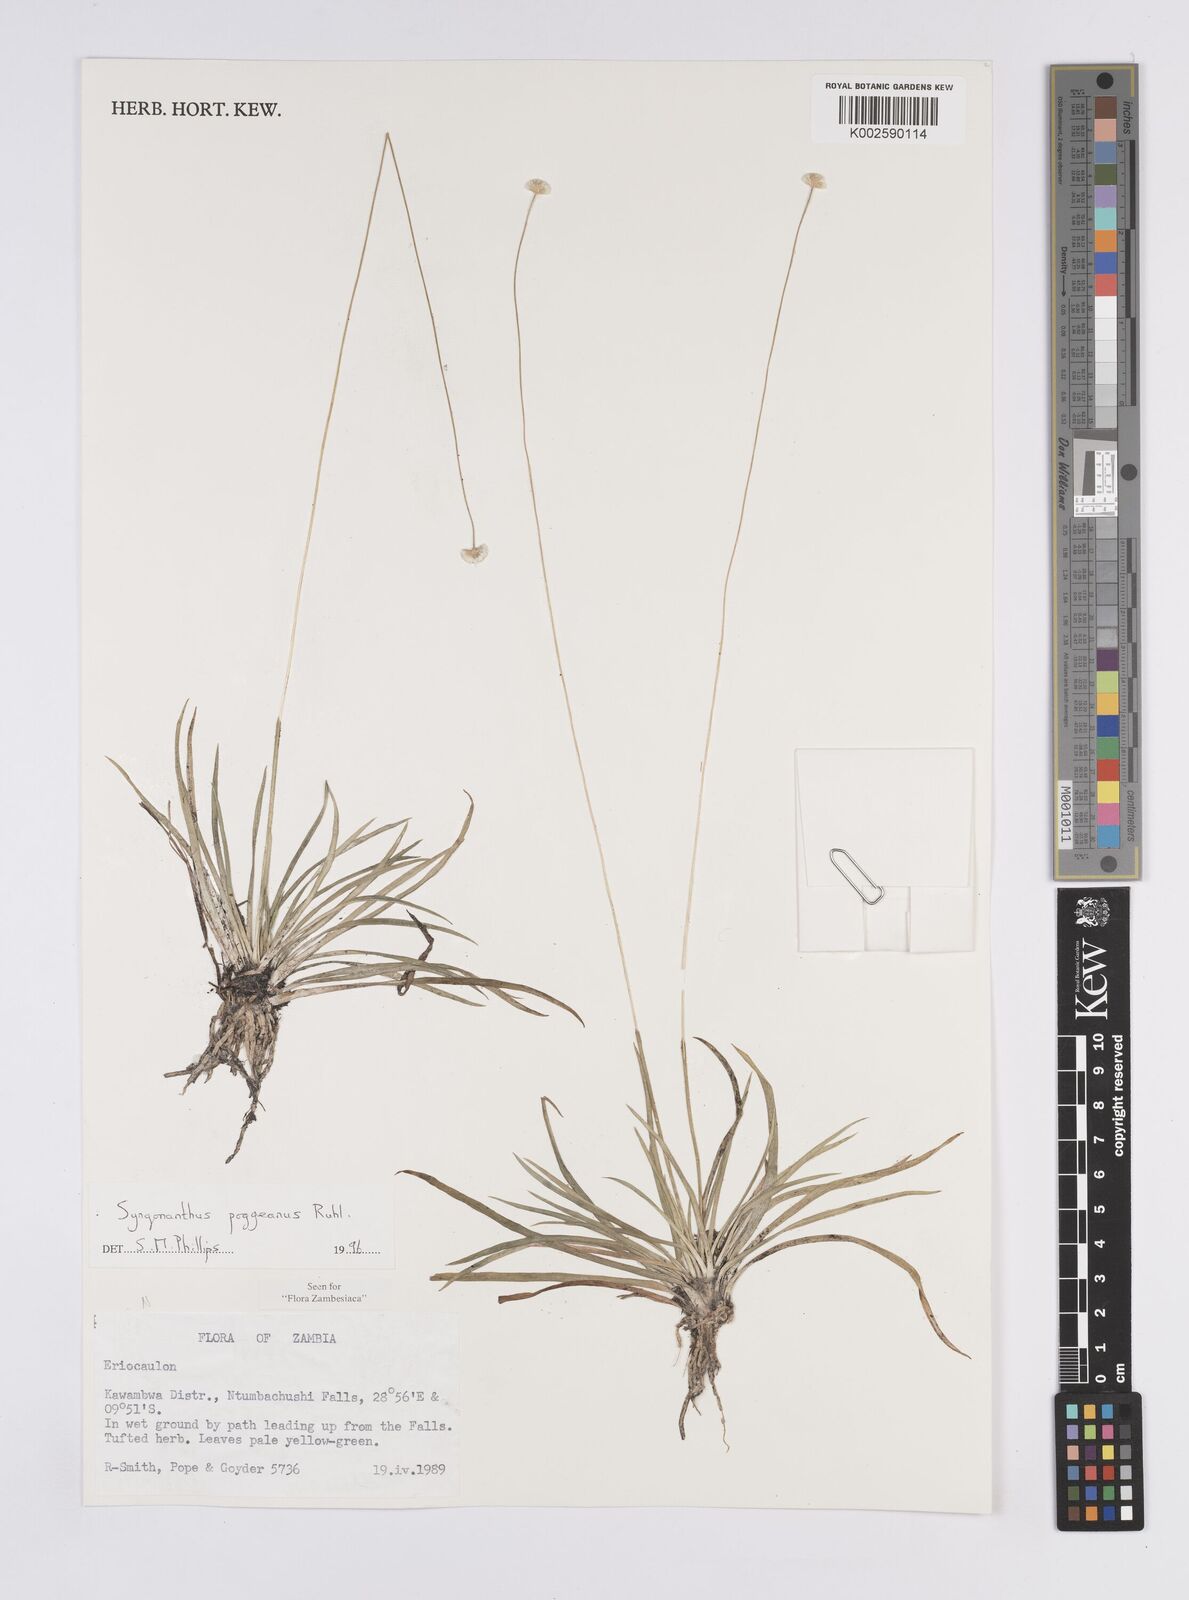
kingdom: Plantae
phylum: Tracheophyta
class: Liliopsida
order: Poales
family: Eriocaulaceae
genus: Syngonanthus
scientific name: Syngonanthus poggeanus
